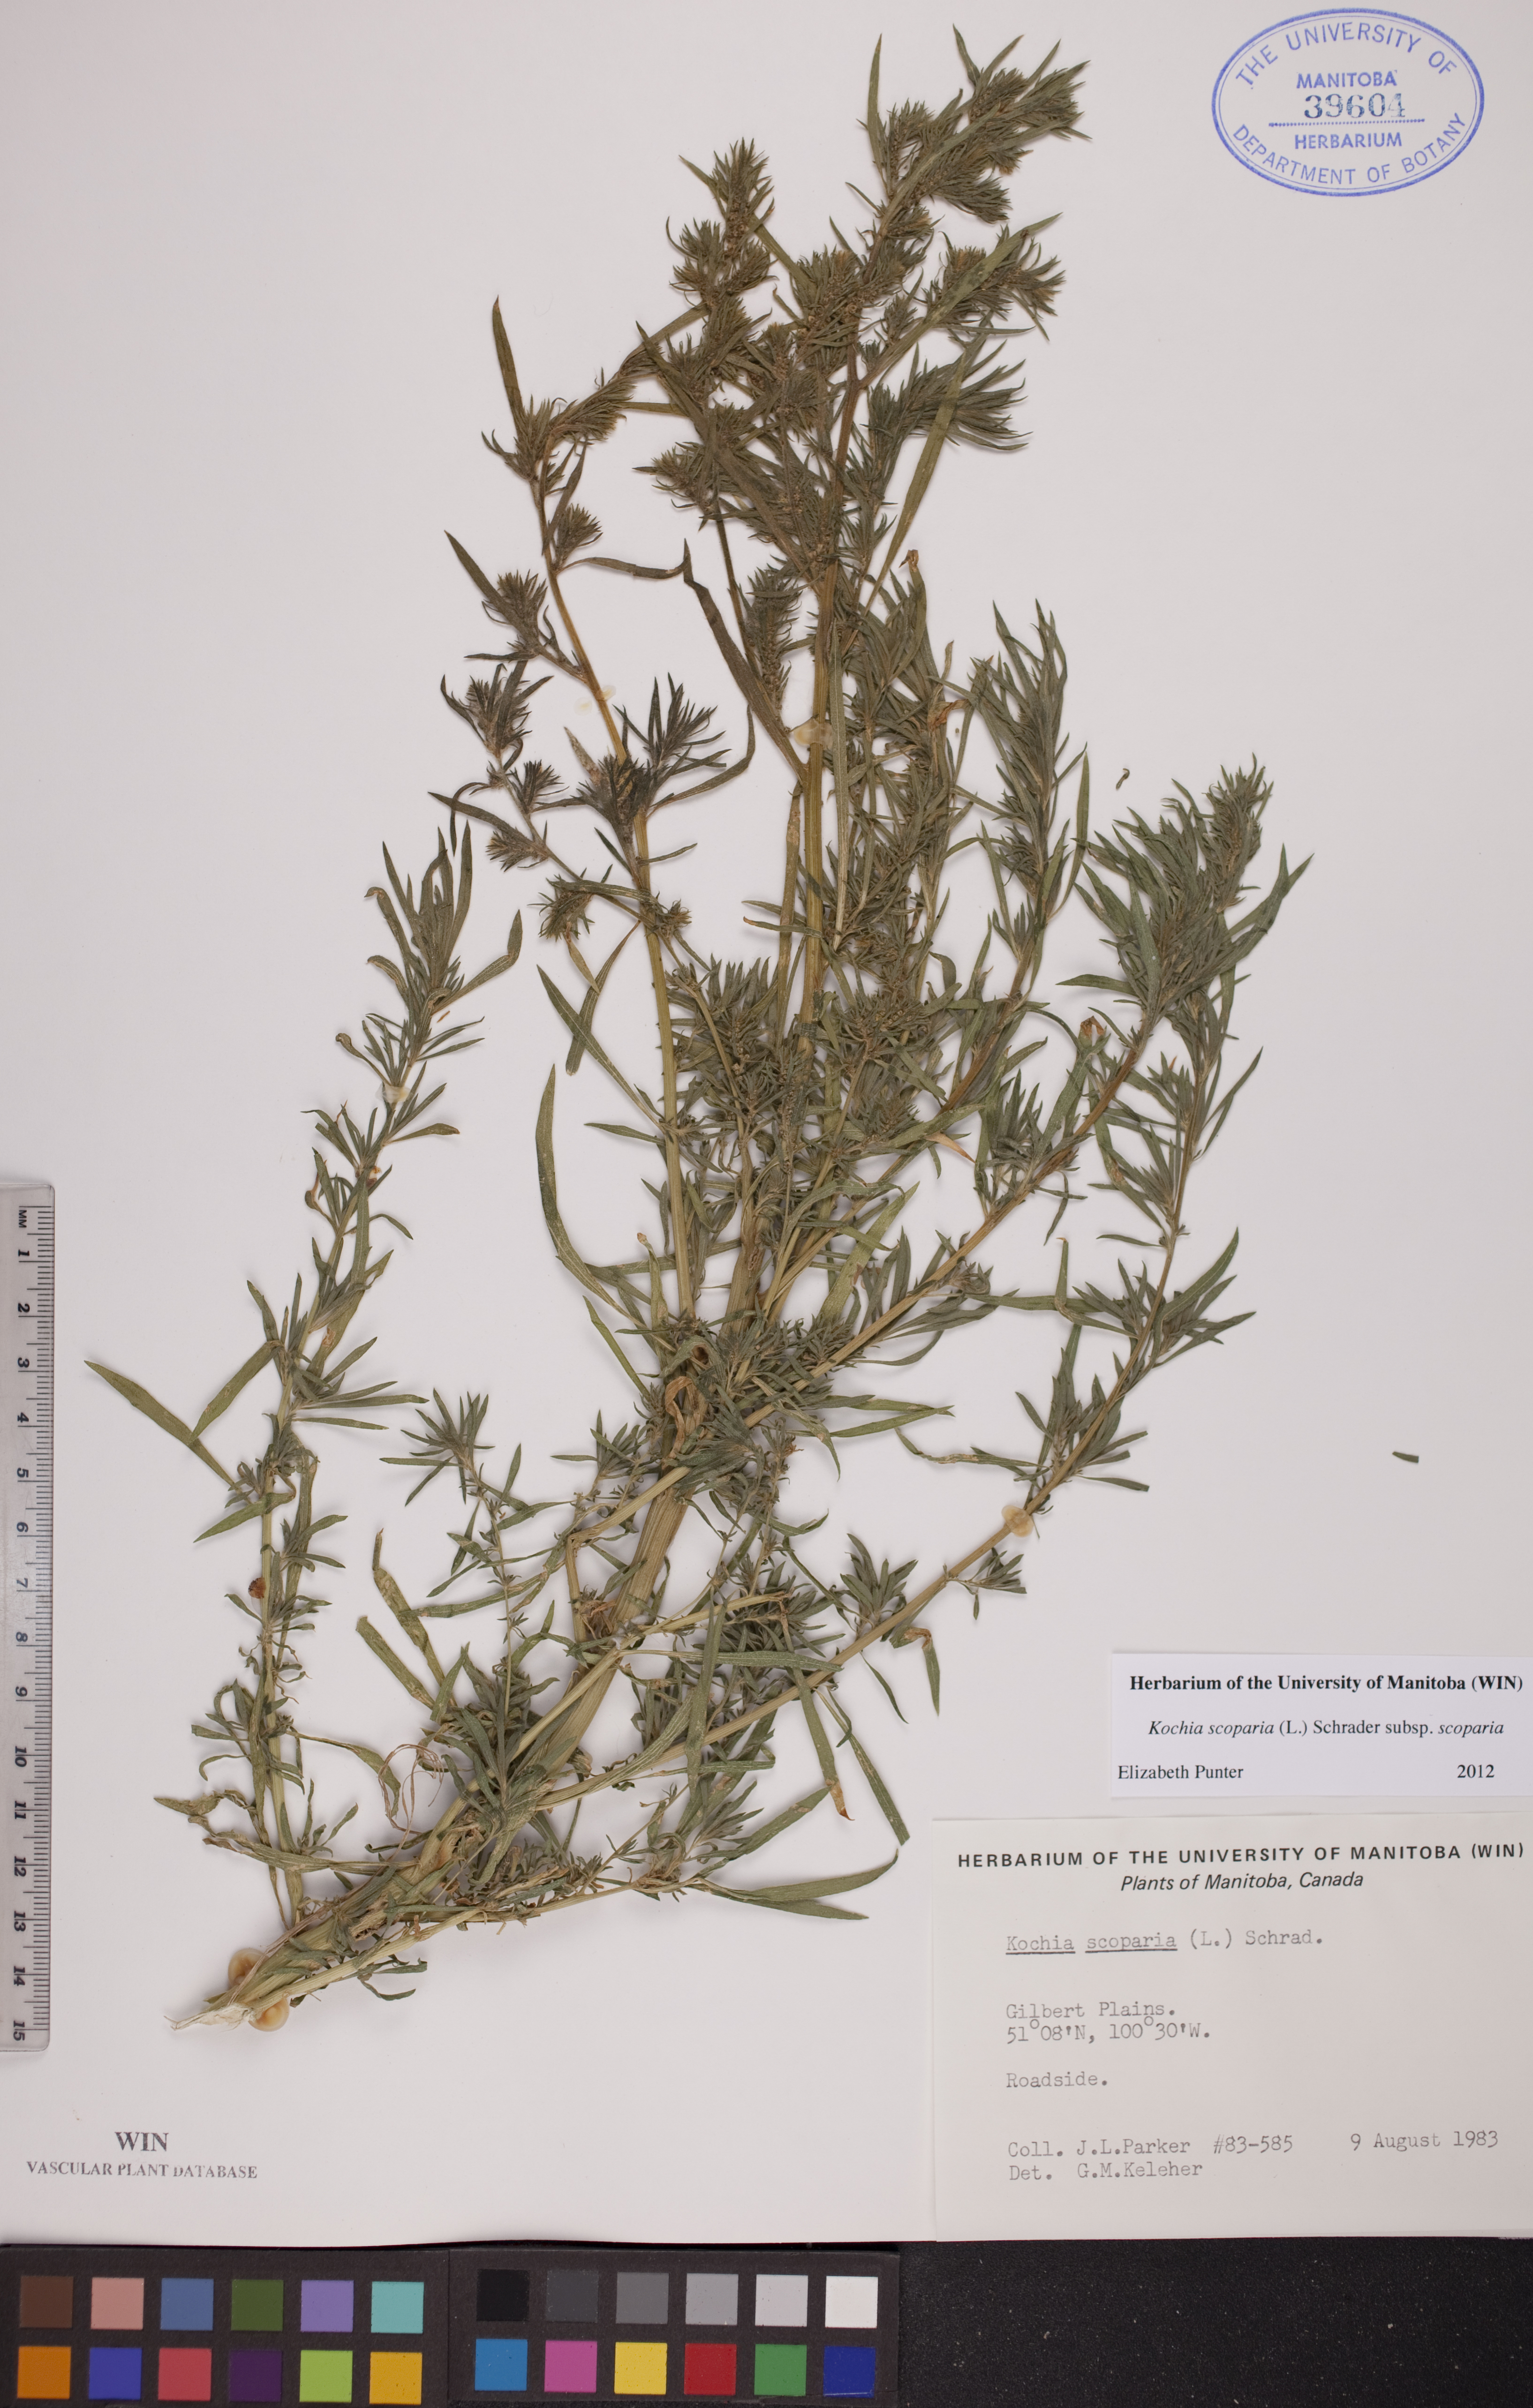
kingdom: Plantae
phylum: Tracheophyta
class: Magnoliopsida
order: Caryophyllales
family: Amaranthaceae
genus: Bassia
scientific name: Bassia scoparia
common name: Belvedere
